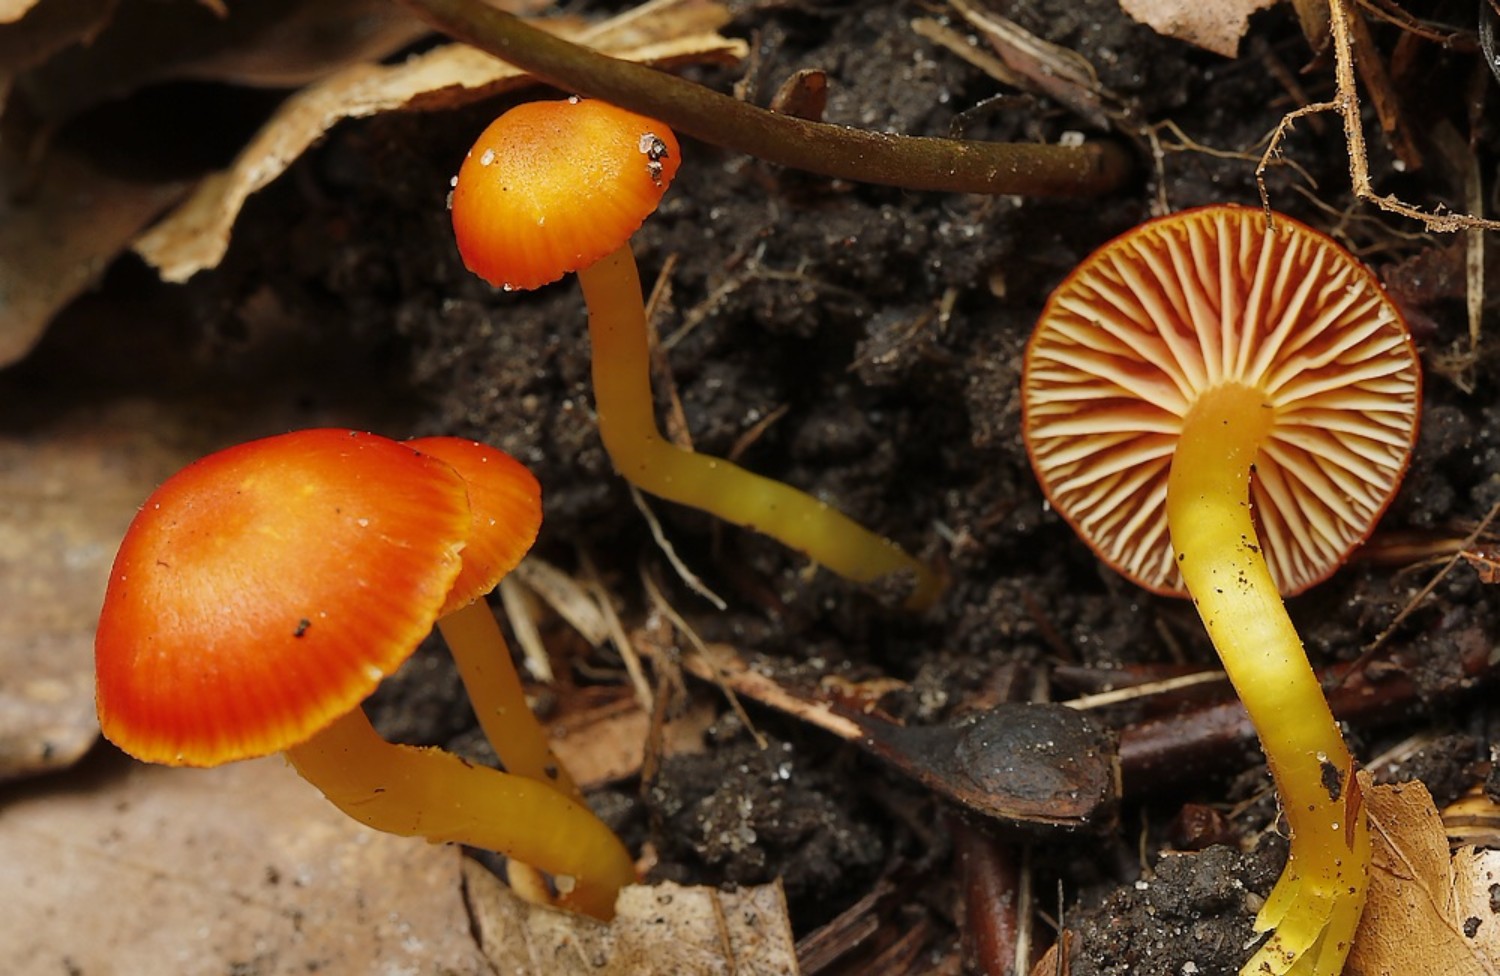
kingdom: Fungi
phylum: Basidiomycota
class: Agaricomycetes
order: Agaricales
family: Hygrophoraceae
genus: Hygrocybe
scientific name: Hygrocybe insipida
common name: liden vokshat
